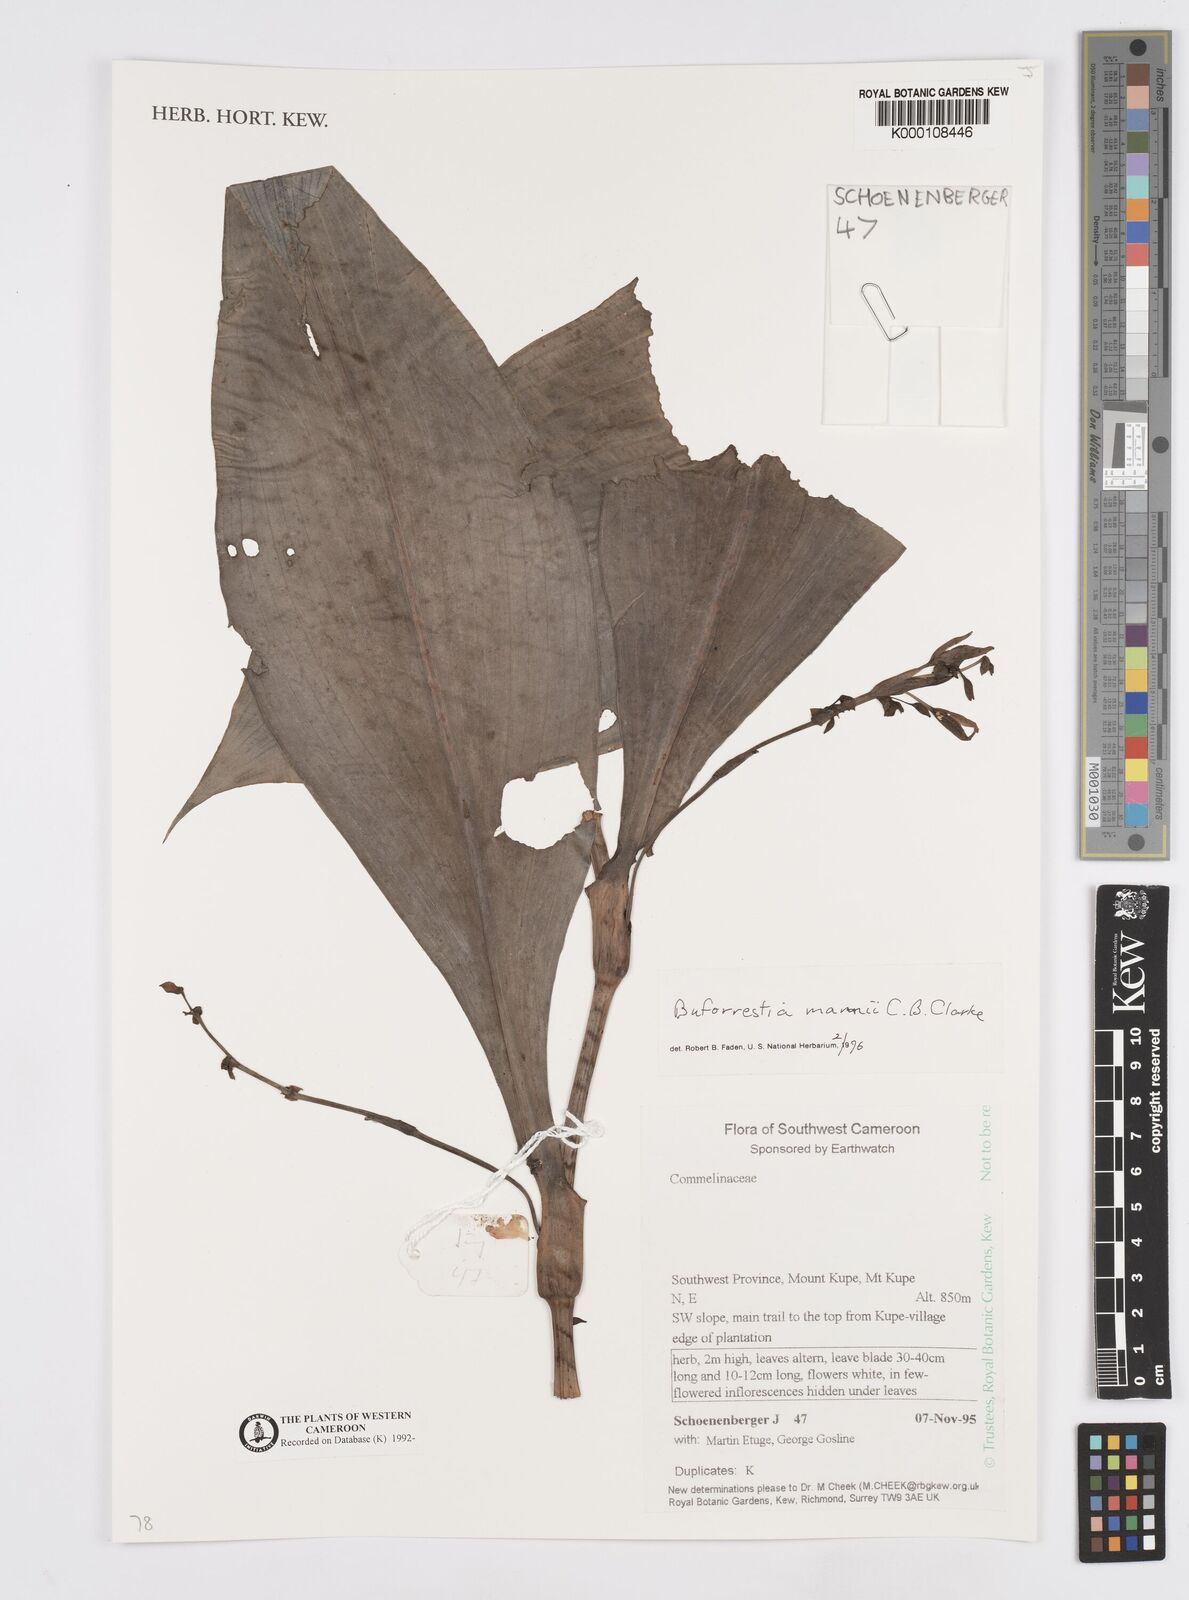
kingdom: Plantae
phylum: Tracheophyta
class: Liliopsida
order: Commelinales
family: Commelinaceae
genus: Buforrestia
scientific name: Buforrestia mannii
